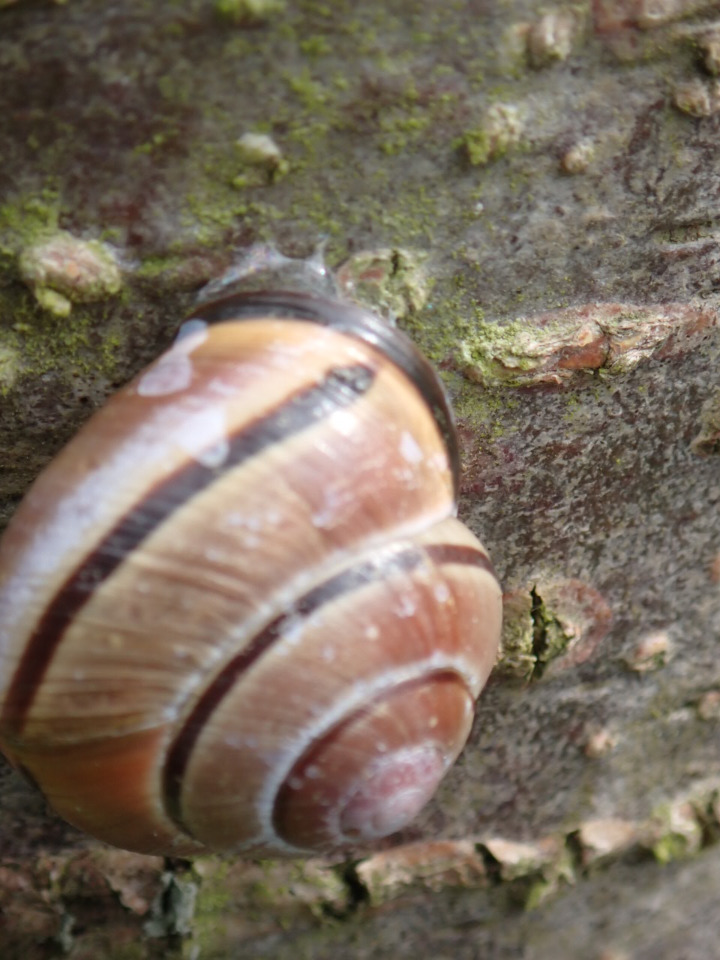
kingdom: Animalia
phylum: Mollusca
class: Gastropoda
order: Stylommatophora
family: Helicidae
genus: Cepaea
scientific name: Cepaea nemoralis
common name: Lundsnegl
